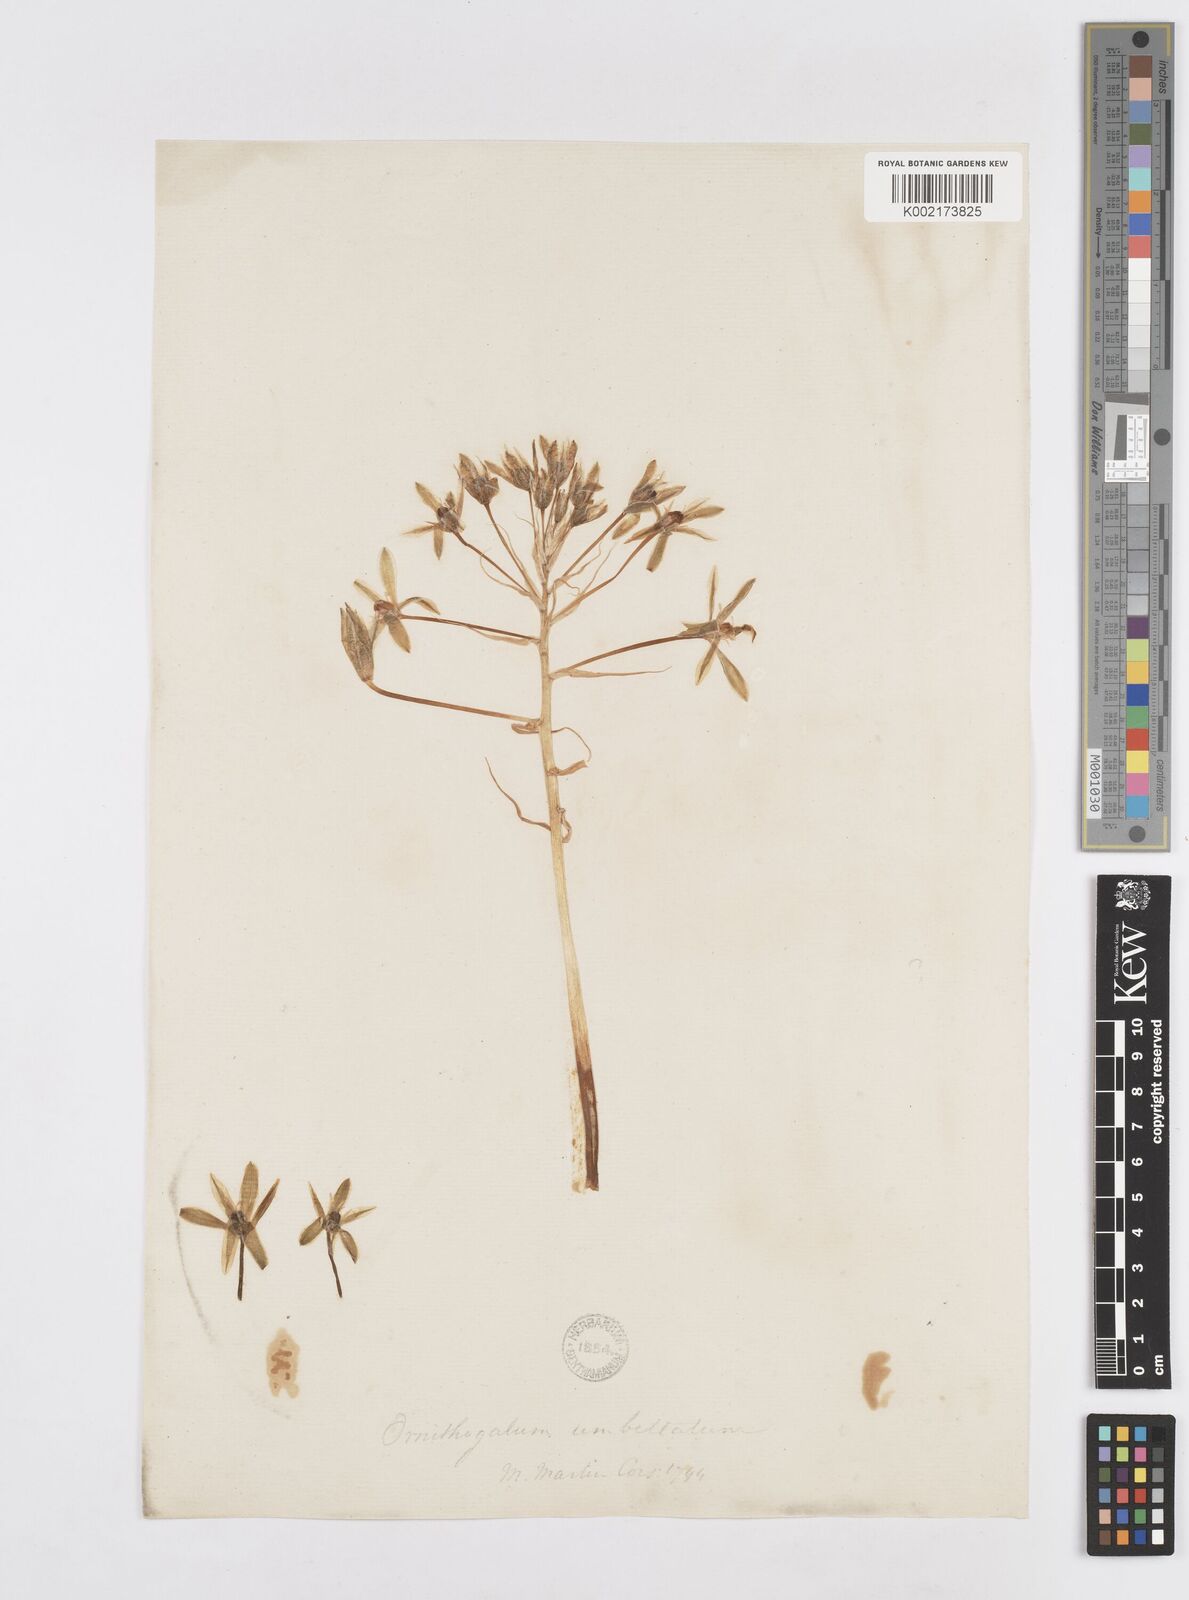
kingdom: Plantae
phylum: Tracheophyta
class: Liliopsida
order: Asparagales
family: Asparagaceae
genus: Ornithogalum
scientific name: Ornithogalum umbellatum
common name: Garden star-of-bethlehem
